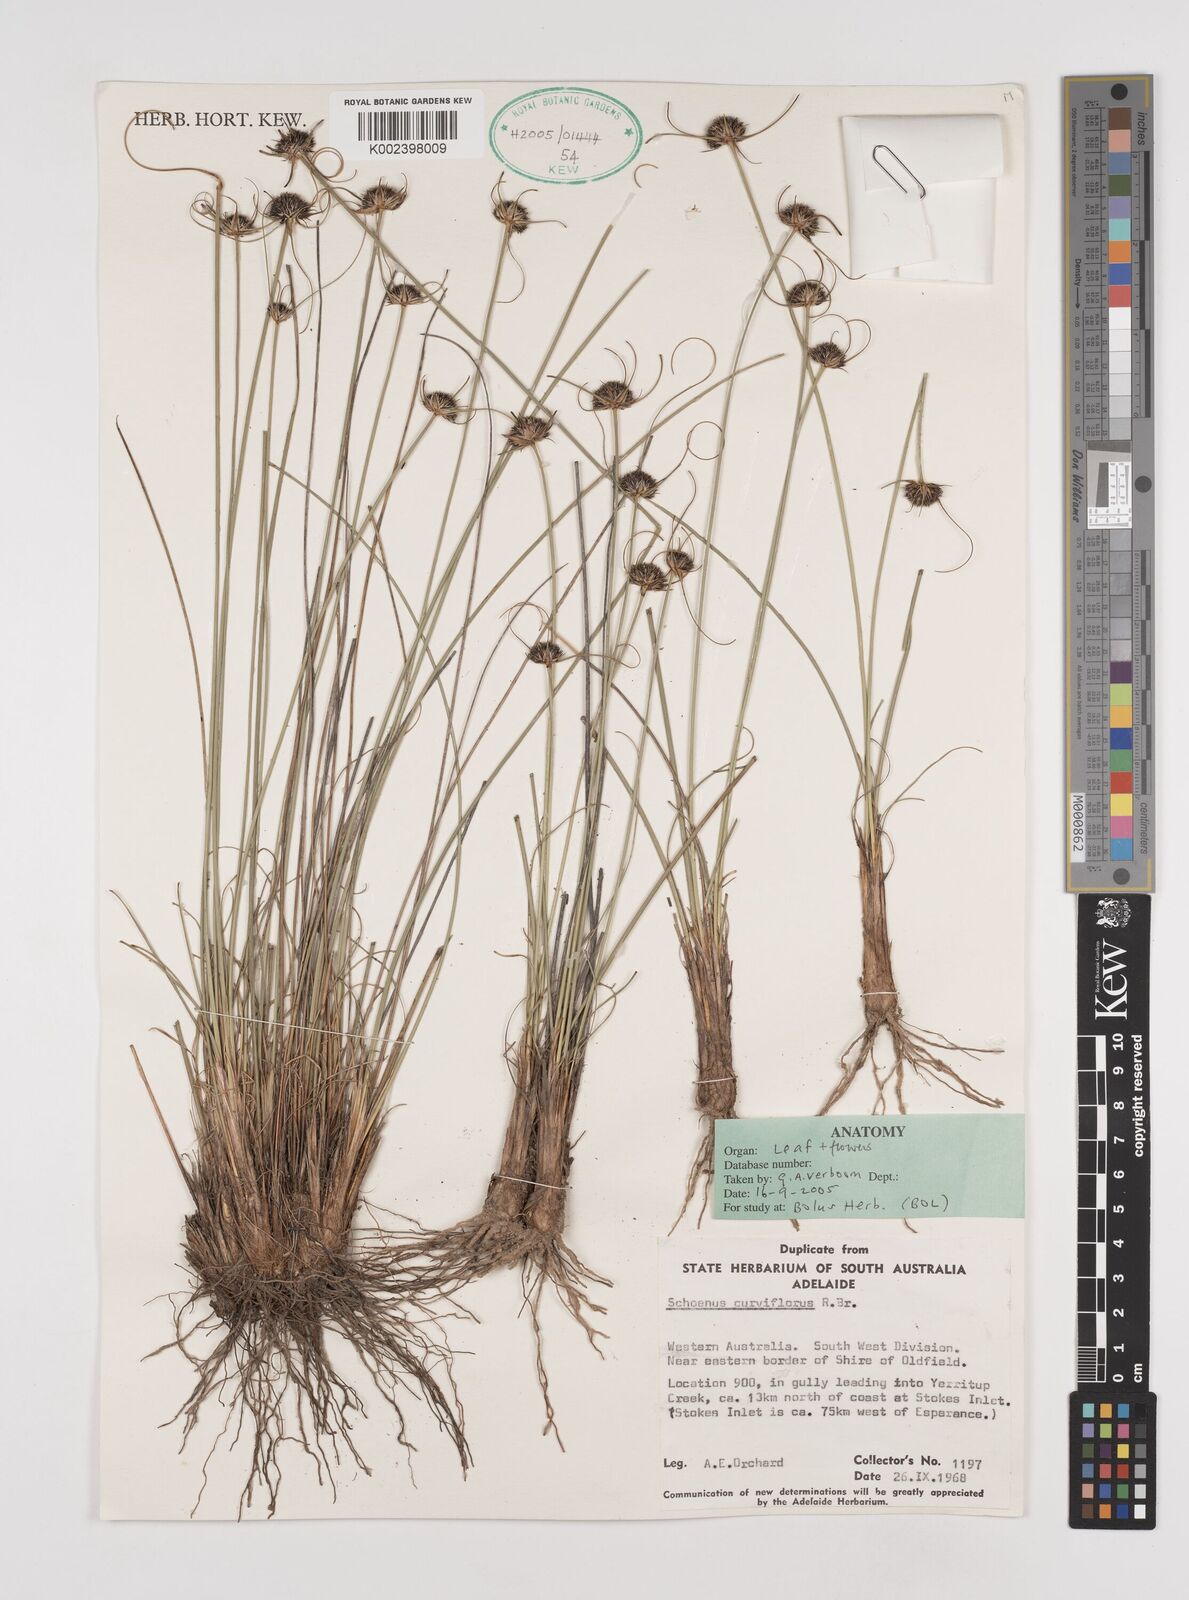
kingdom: Plantae
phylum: Tracheophyta
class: Liliopsida
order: Poales
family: Cyperaceae
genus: Schoenus
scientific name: Schoenus curvifolius
